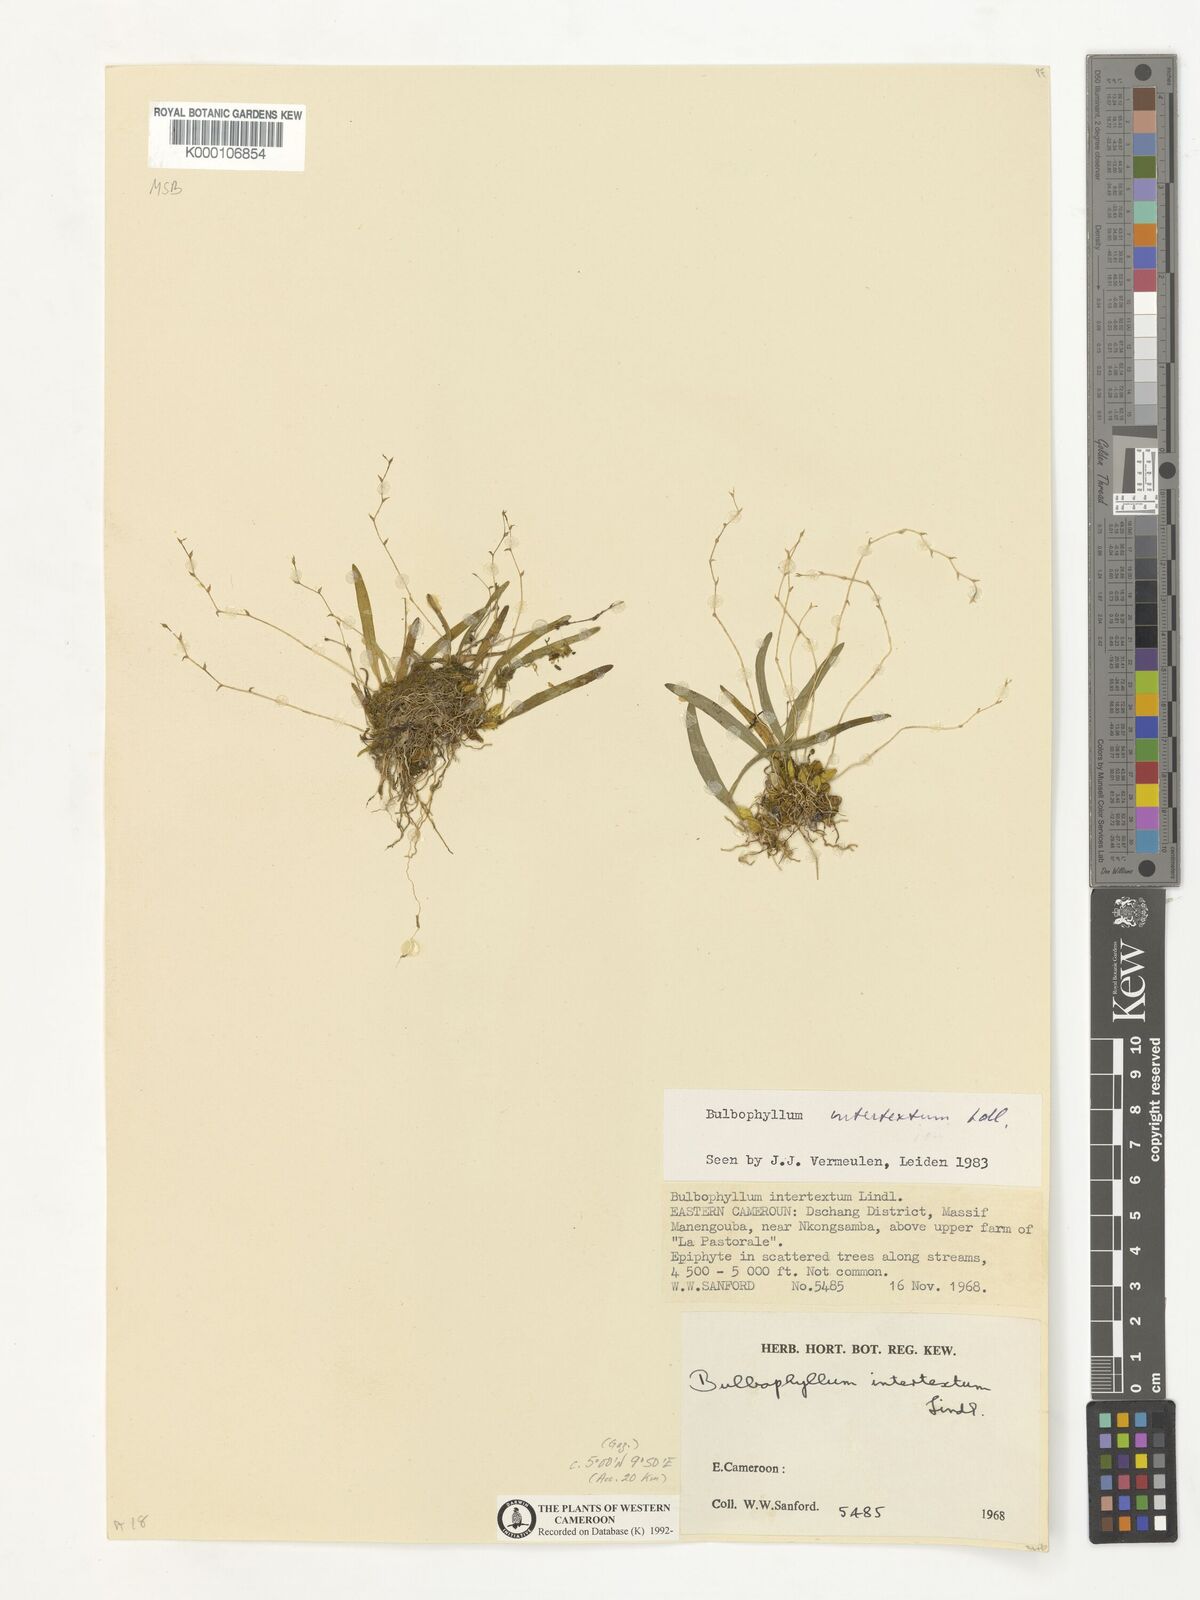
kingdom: Plantae
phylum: Tracheophyta
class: Liliopsida
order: Asparagales
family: Orchidaceae
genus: Bulbophyllum
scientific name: Bulbophyllum intertextum
